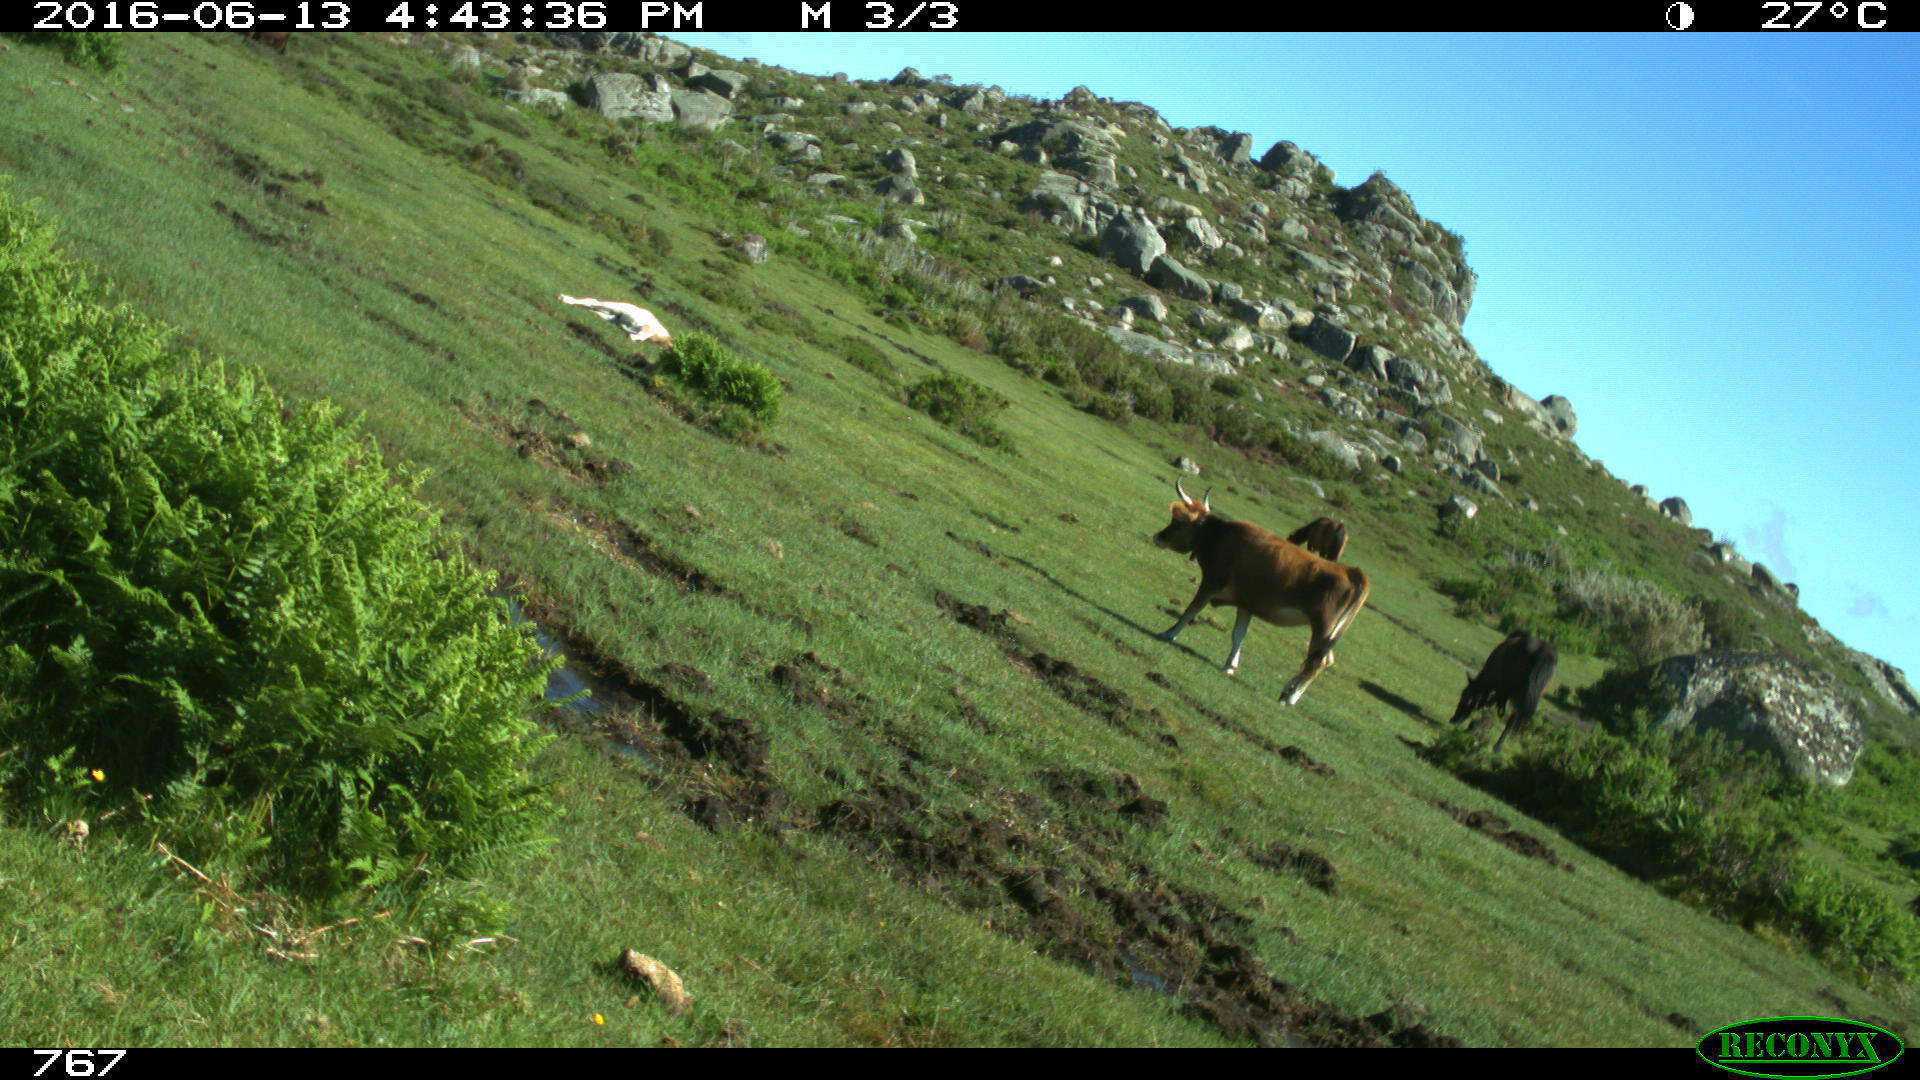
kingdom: Animalia
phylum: Chordata
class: Mammalia
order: Perissodactyla
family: Equidae
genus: Equus
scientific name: Equus caballus
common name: Horse
